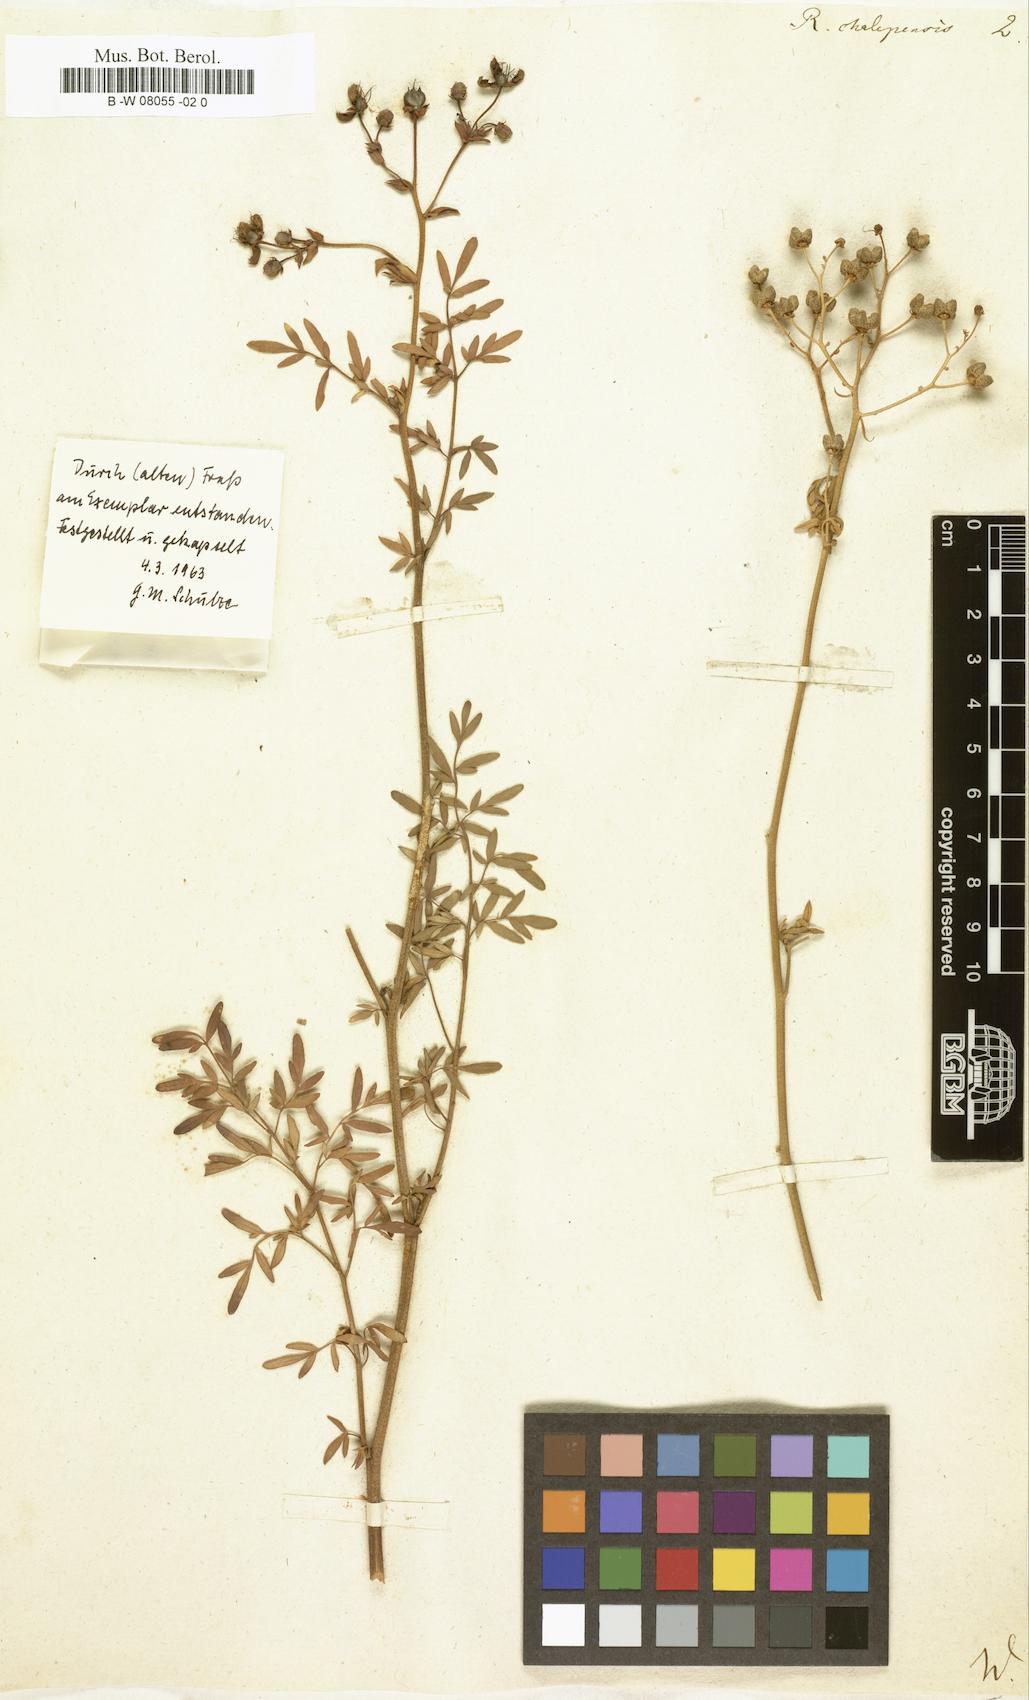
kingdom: Plantae
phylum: Tracheophyta
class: Magnoliopsida
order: Sapindales
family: Rutaceae
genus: Ruta
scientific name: Ruta chalepensis
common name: Fringed rue
